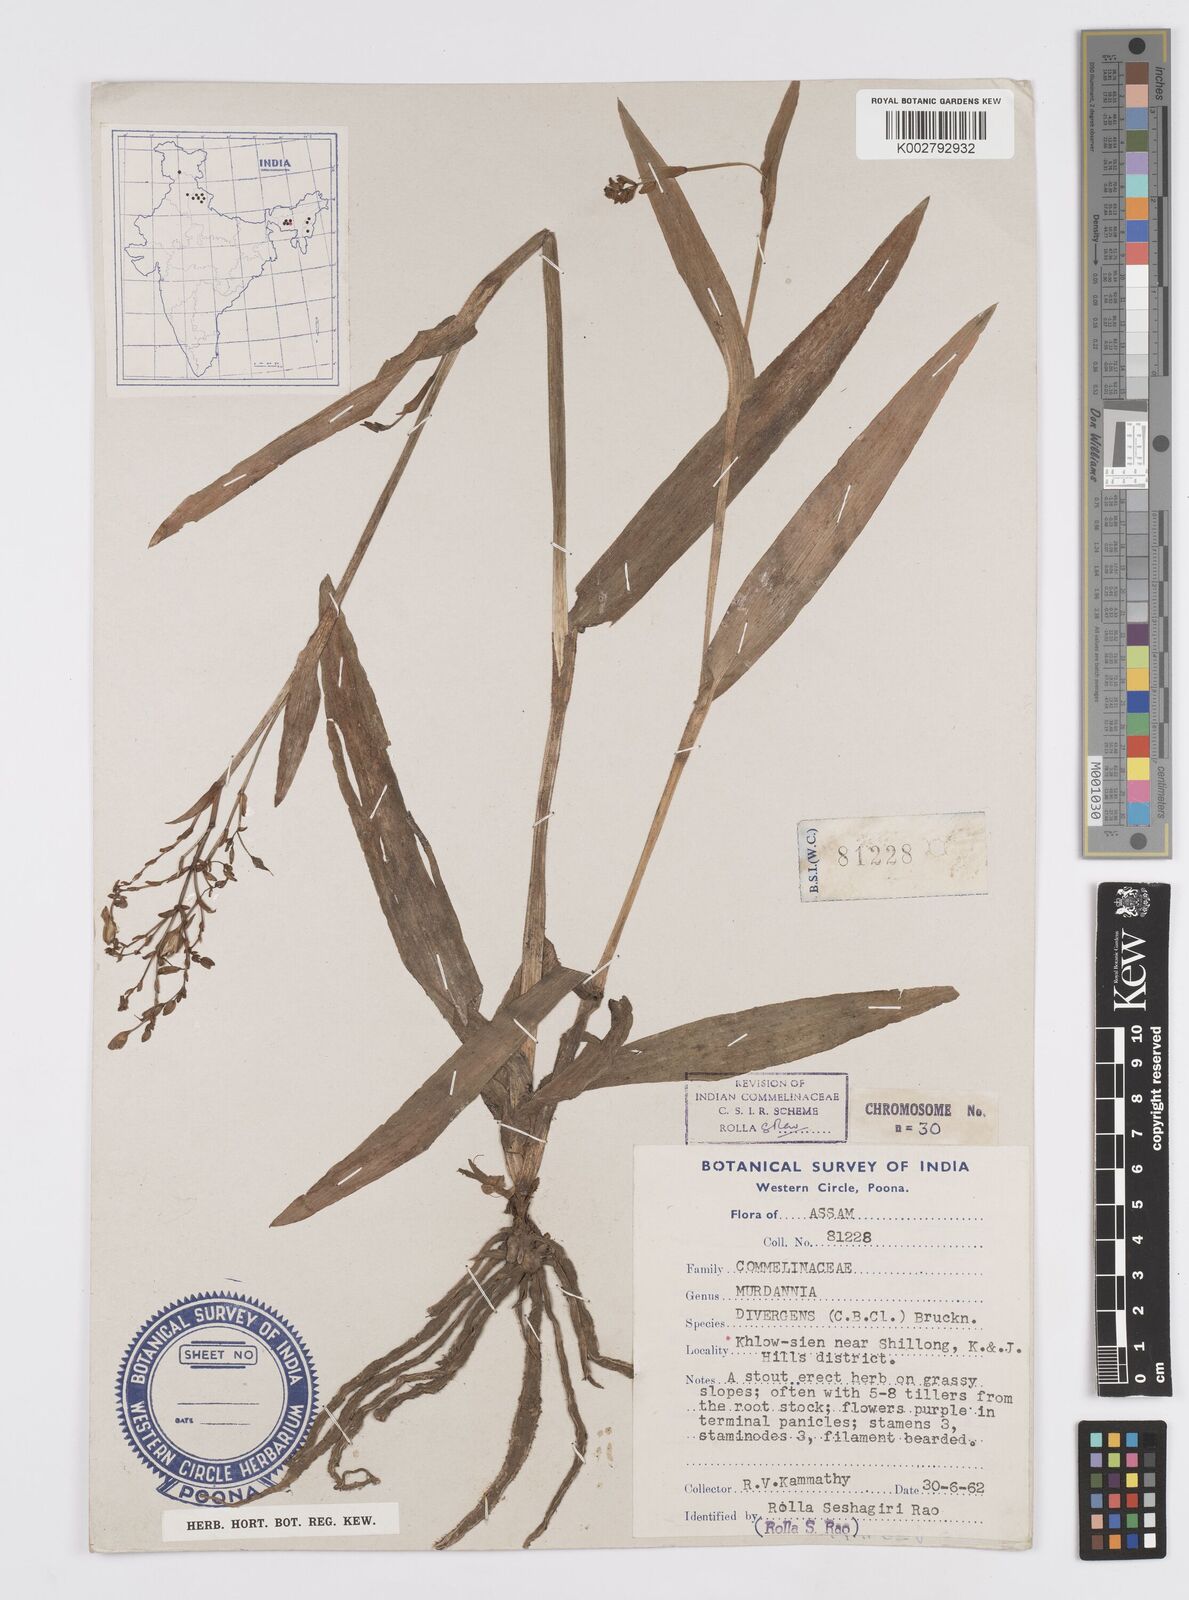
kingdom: Plantae
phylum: Tracheophyta
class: Liliopsida
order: Commelinales
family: Commelinaceae
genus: Murdannia
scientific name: Murdannia divergens
